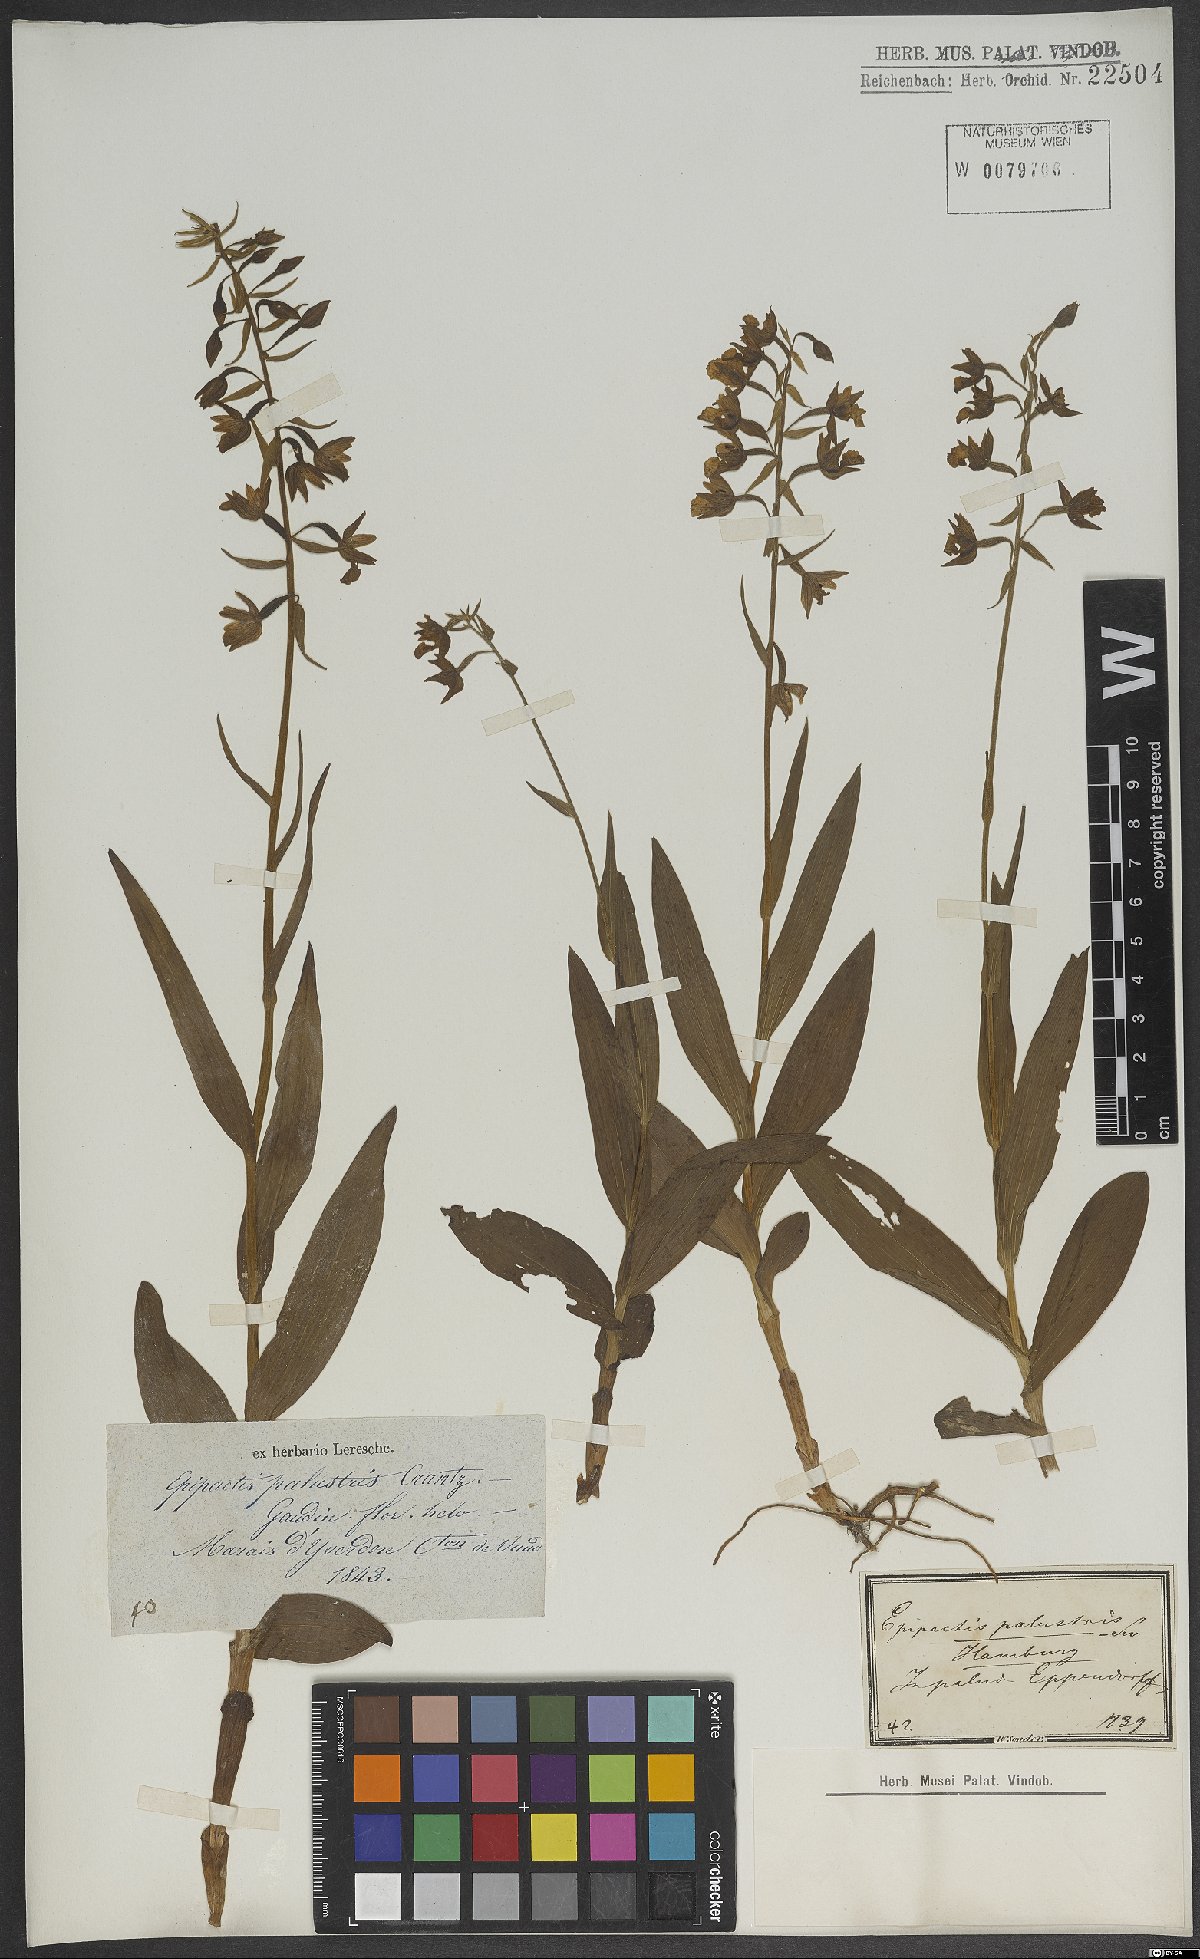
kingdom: Plantae
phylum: Tracheophyta
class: Liliopsida
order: Asparagales
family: Orchidaceae
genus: Epipactis
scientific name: Epipactis palustris
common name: Marsh helleborine
